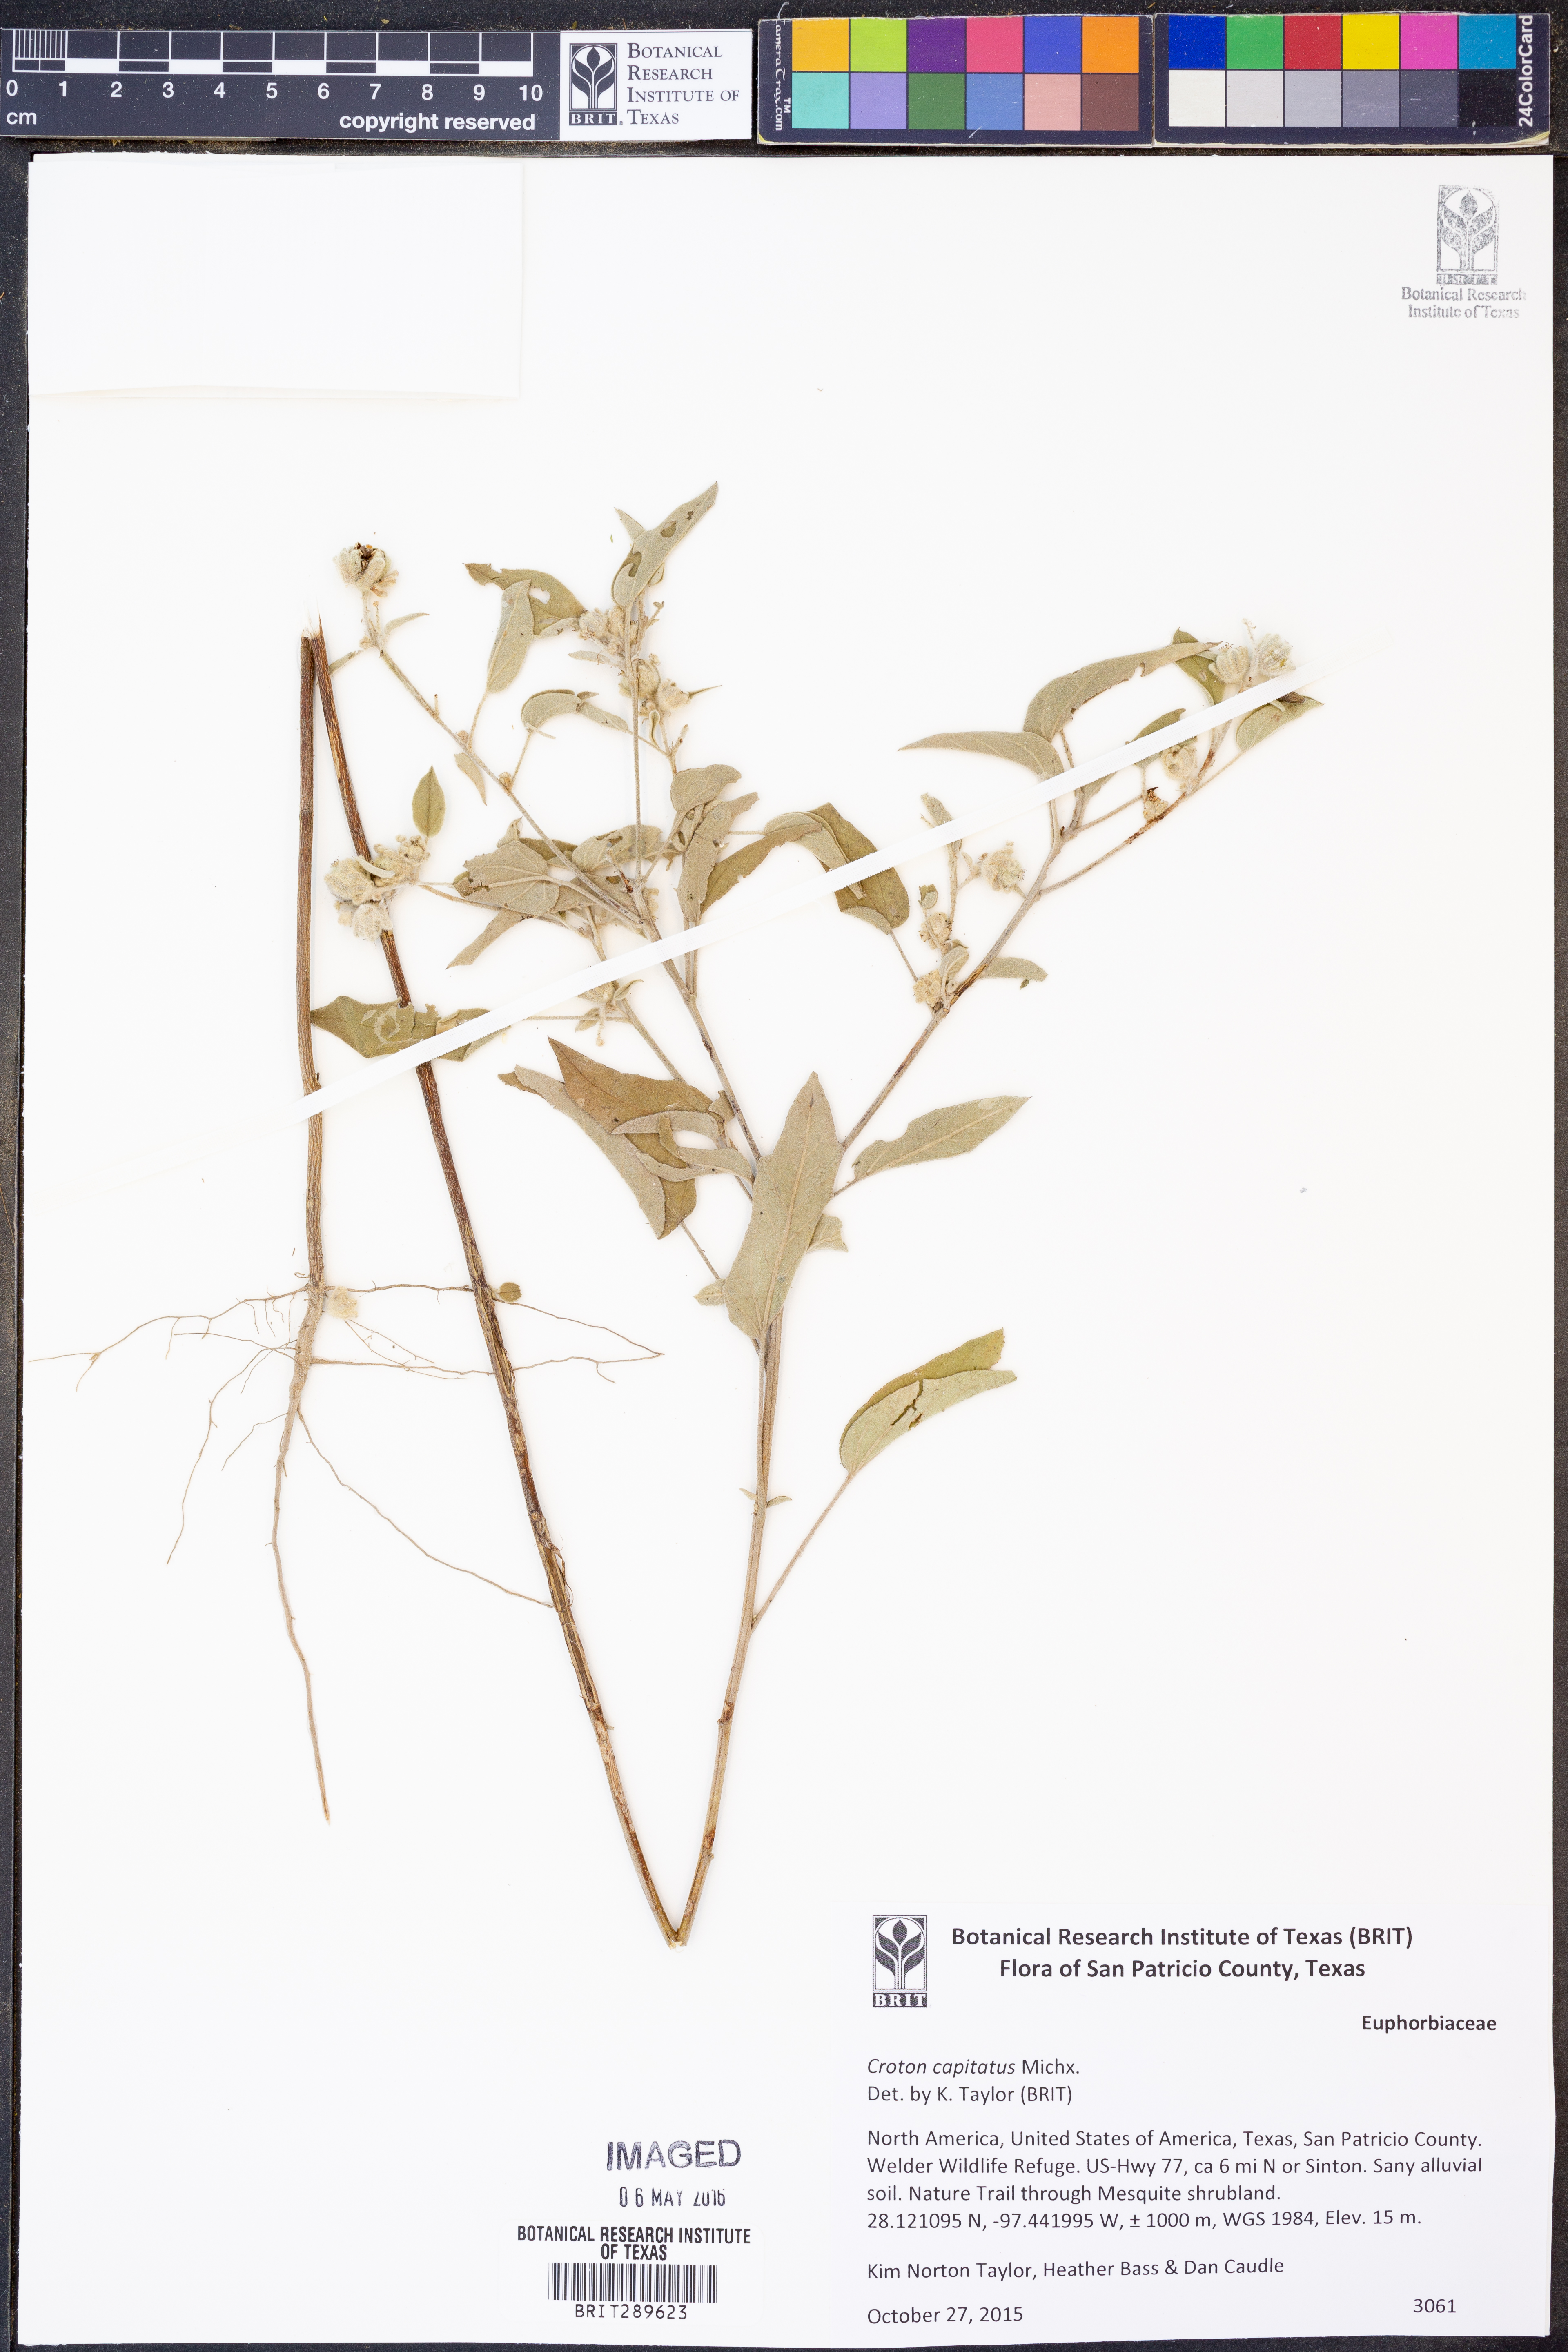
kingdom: Plantae
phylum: Tracheophyta
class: Magnoliopsida
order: Malpighiales
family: Euphorbiaceae
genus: Croton
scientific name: Croton capitatus
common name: Woolly croton
